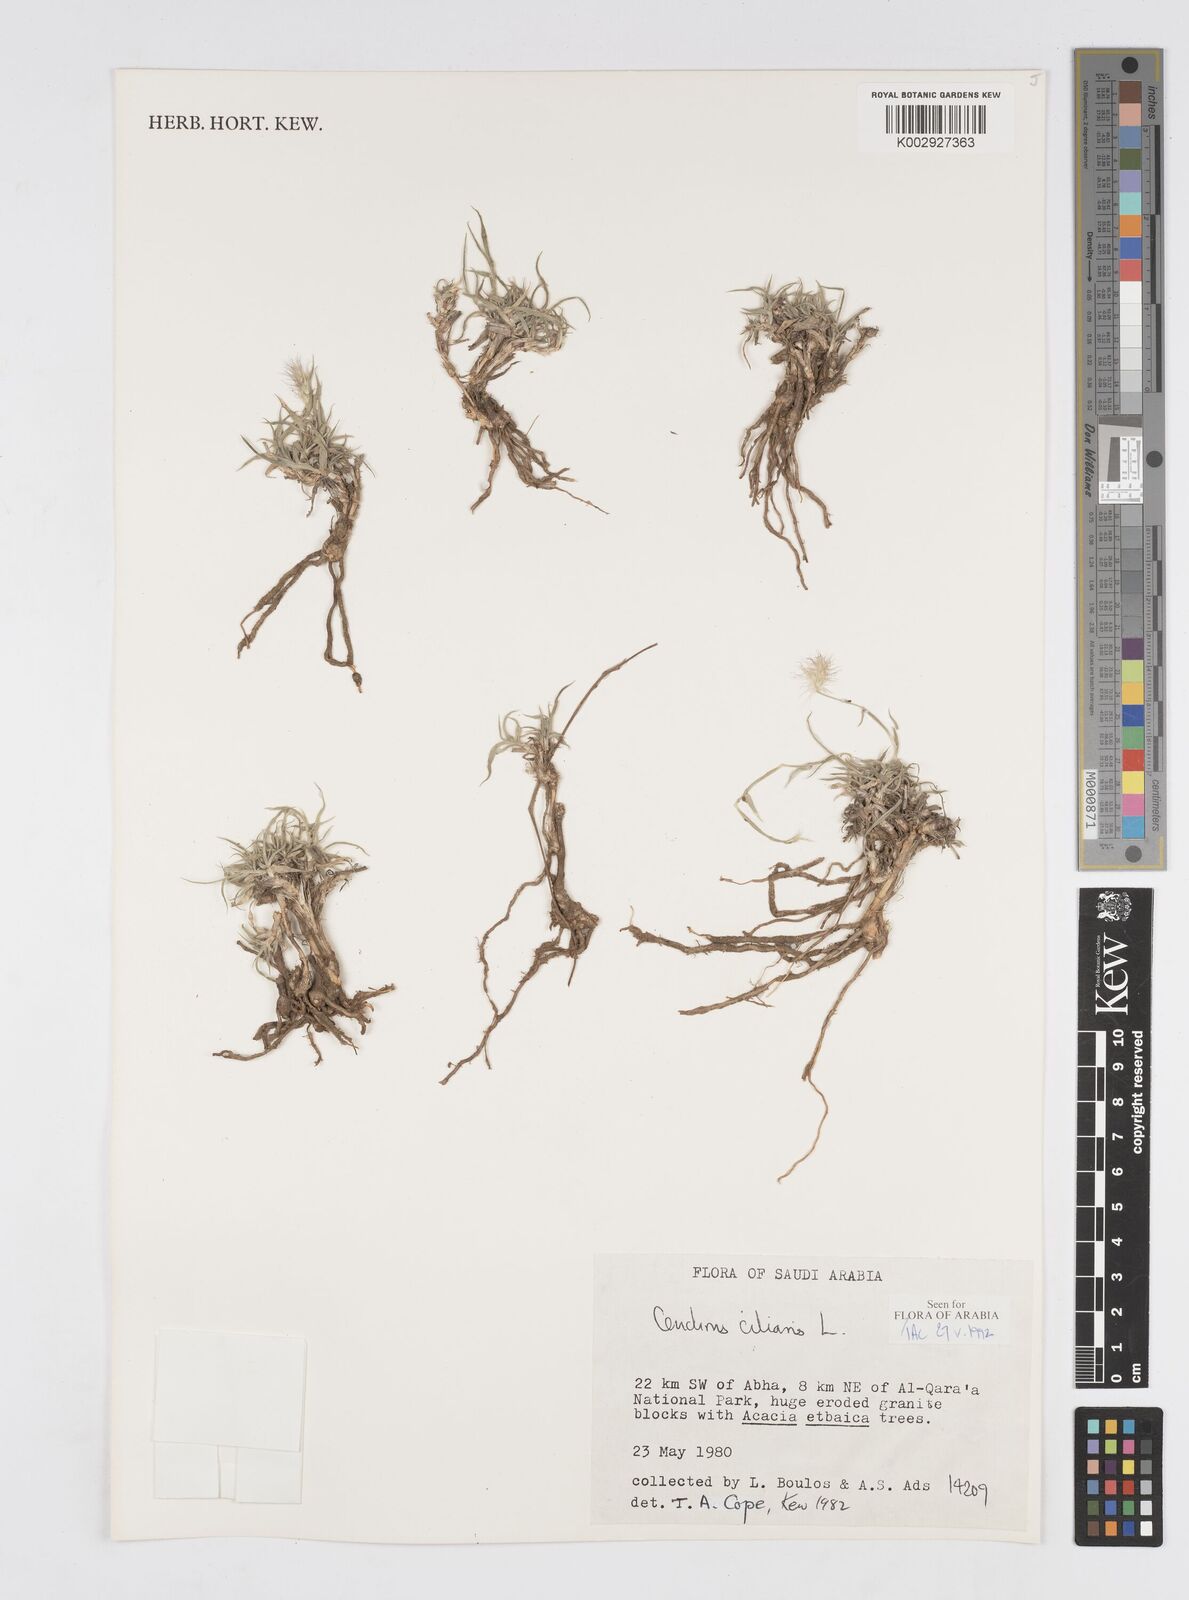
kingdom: Plantae
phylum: Tracheophyta
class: Liliopsida
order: Poales
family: Poaceae
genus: Cenchrus
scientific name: Cenchrus ciliaris
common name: Buffelgrass
